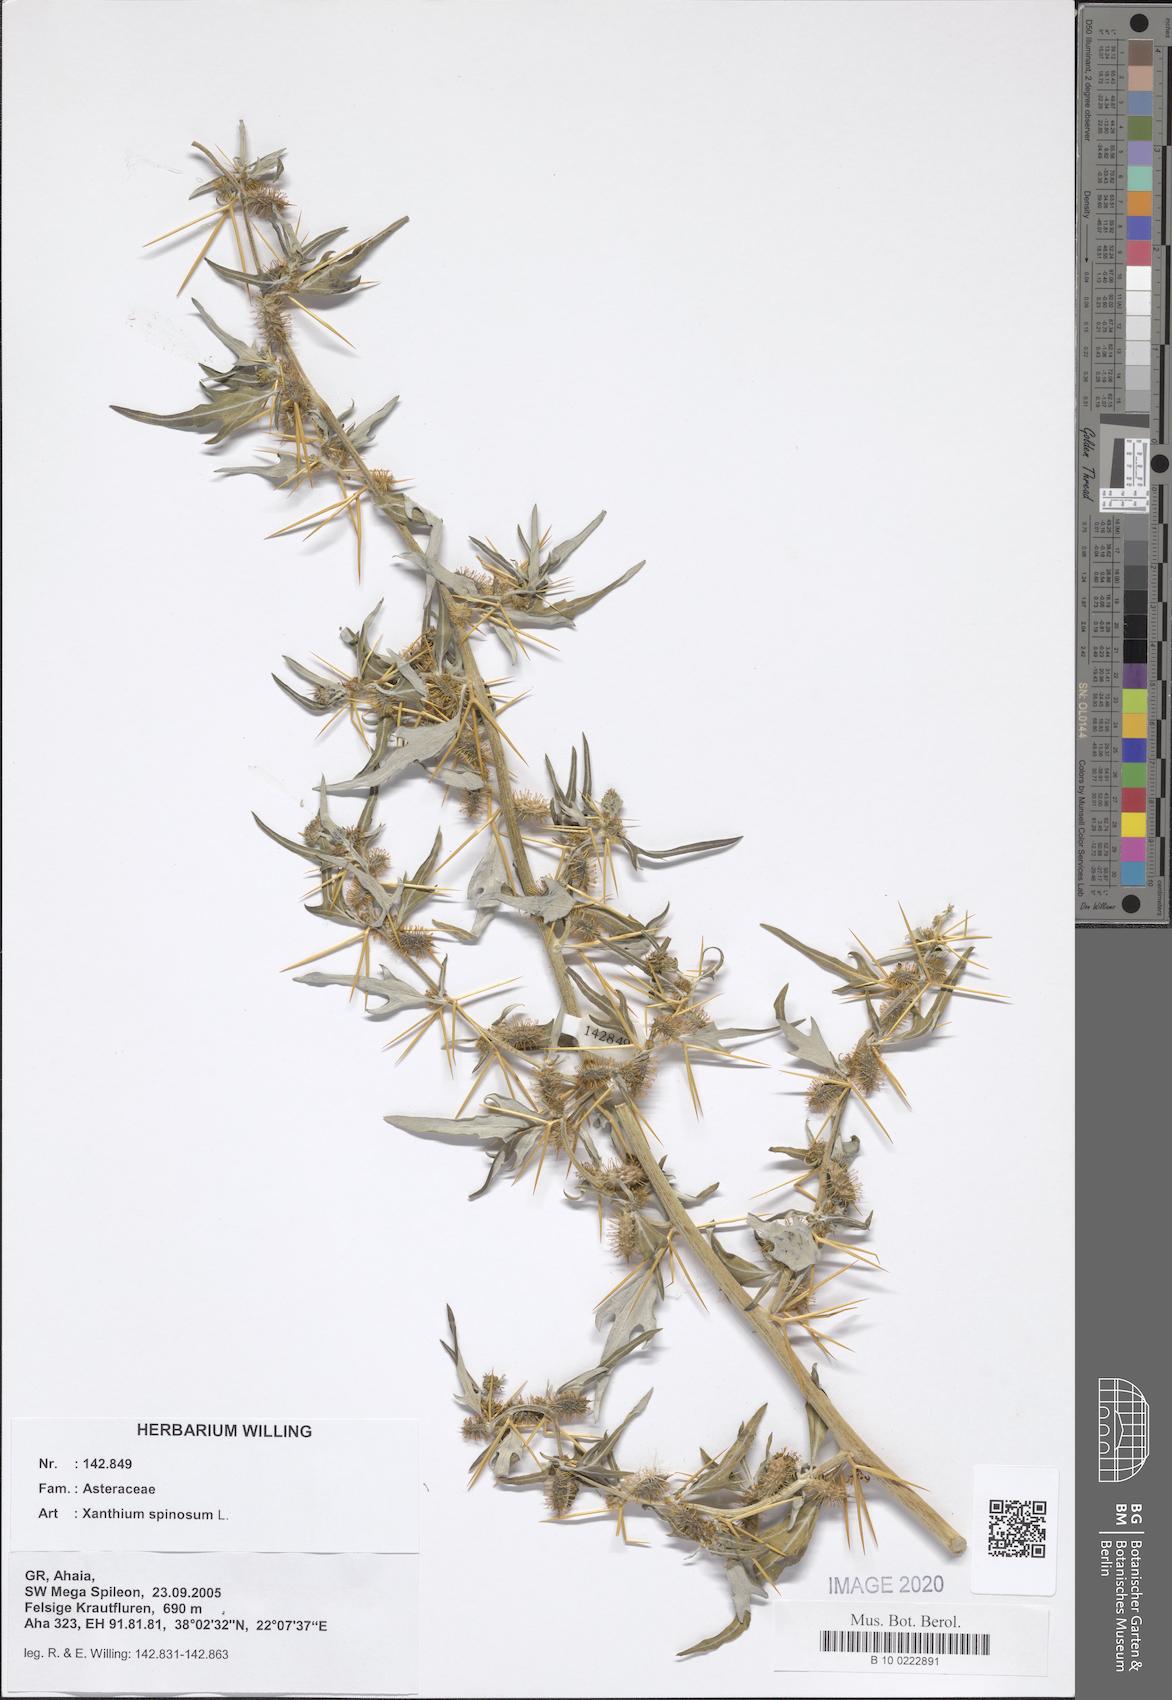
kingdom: Plantae
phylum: Tracheophyta
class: Magnoliopsida
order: Asterales
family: Asteraceae
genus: Xanthium
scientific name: Xanthium spinosum
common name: Spiny cocklebur
